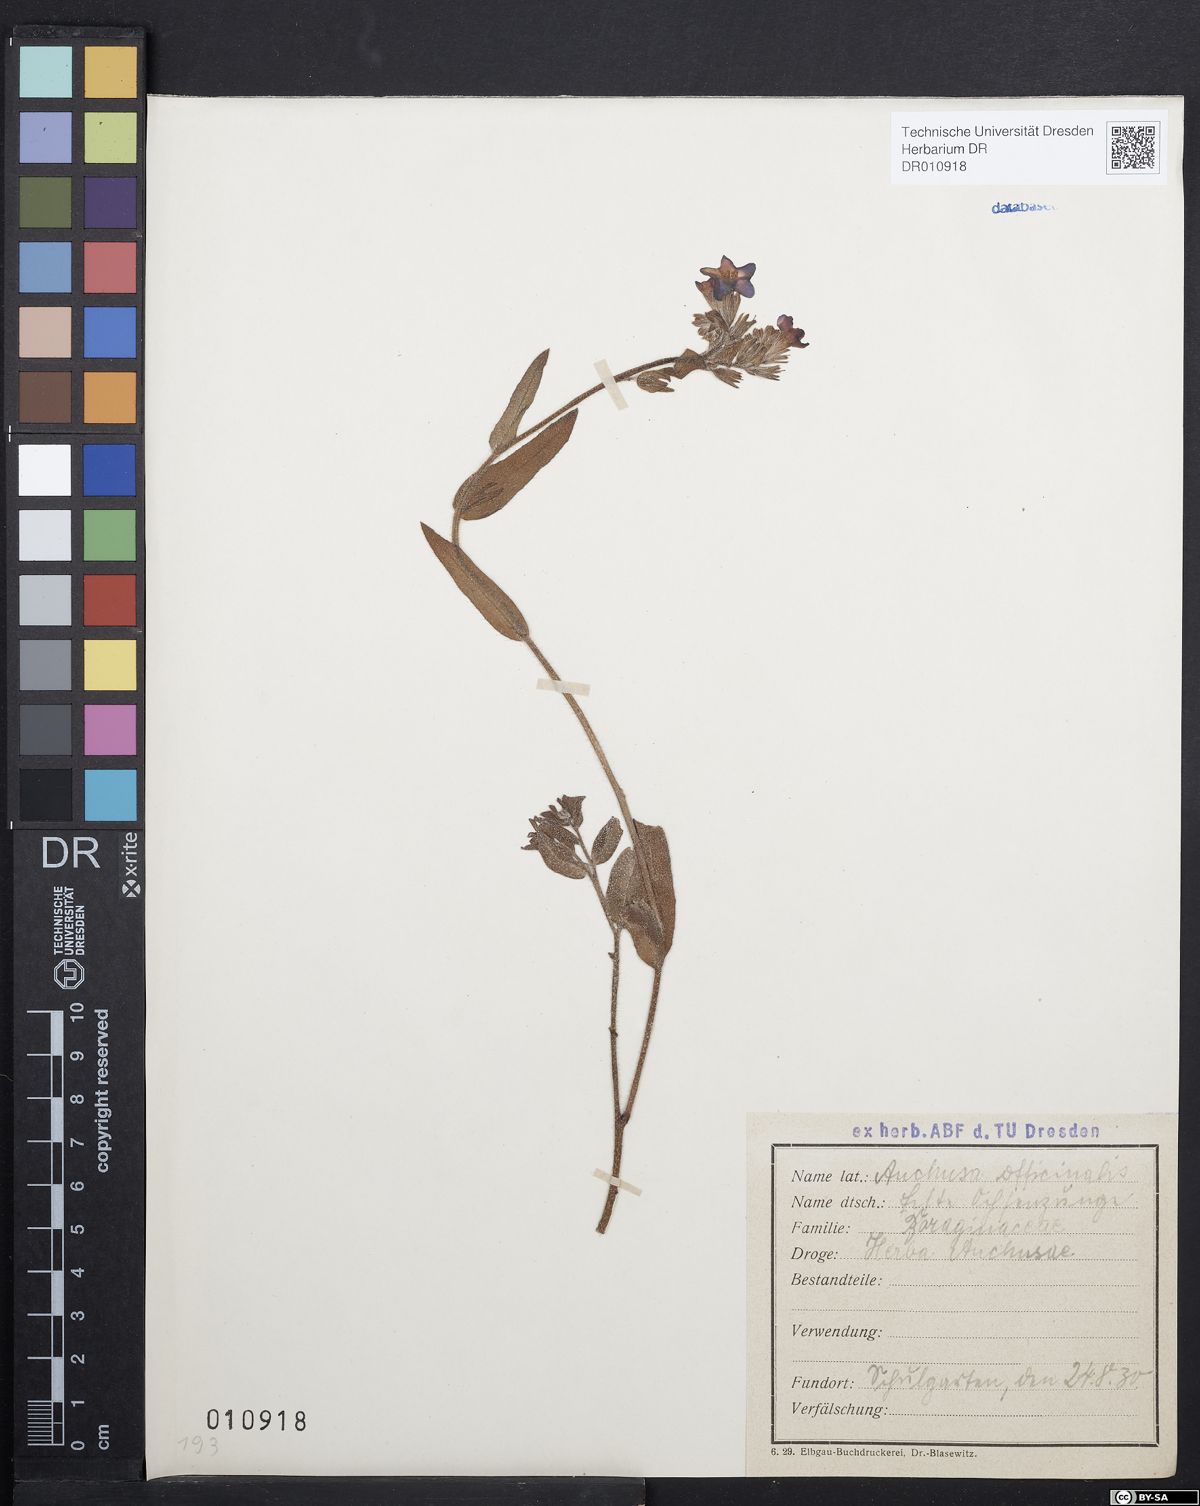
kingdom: Plantae
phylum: Tracheophyta
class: Magnoliopsida
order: Boraginales
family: Boraginaceae
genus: Anchusa
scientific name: Anchusa officinalis
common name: Alkanet
